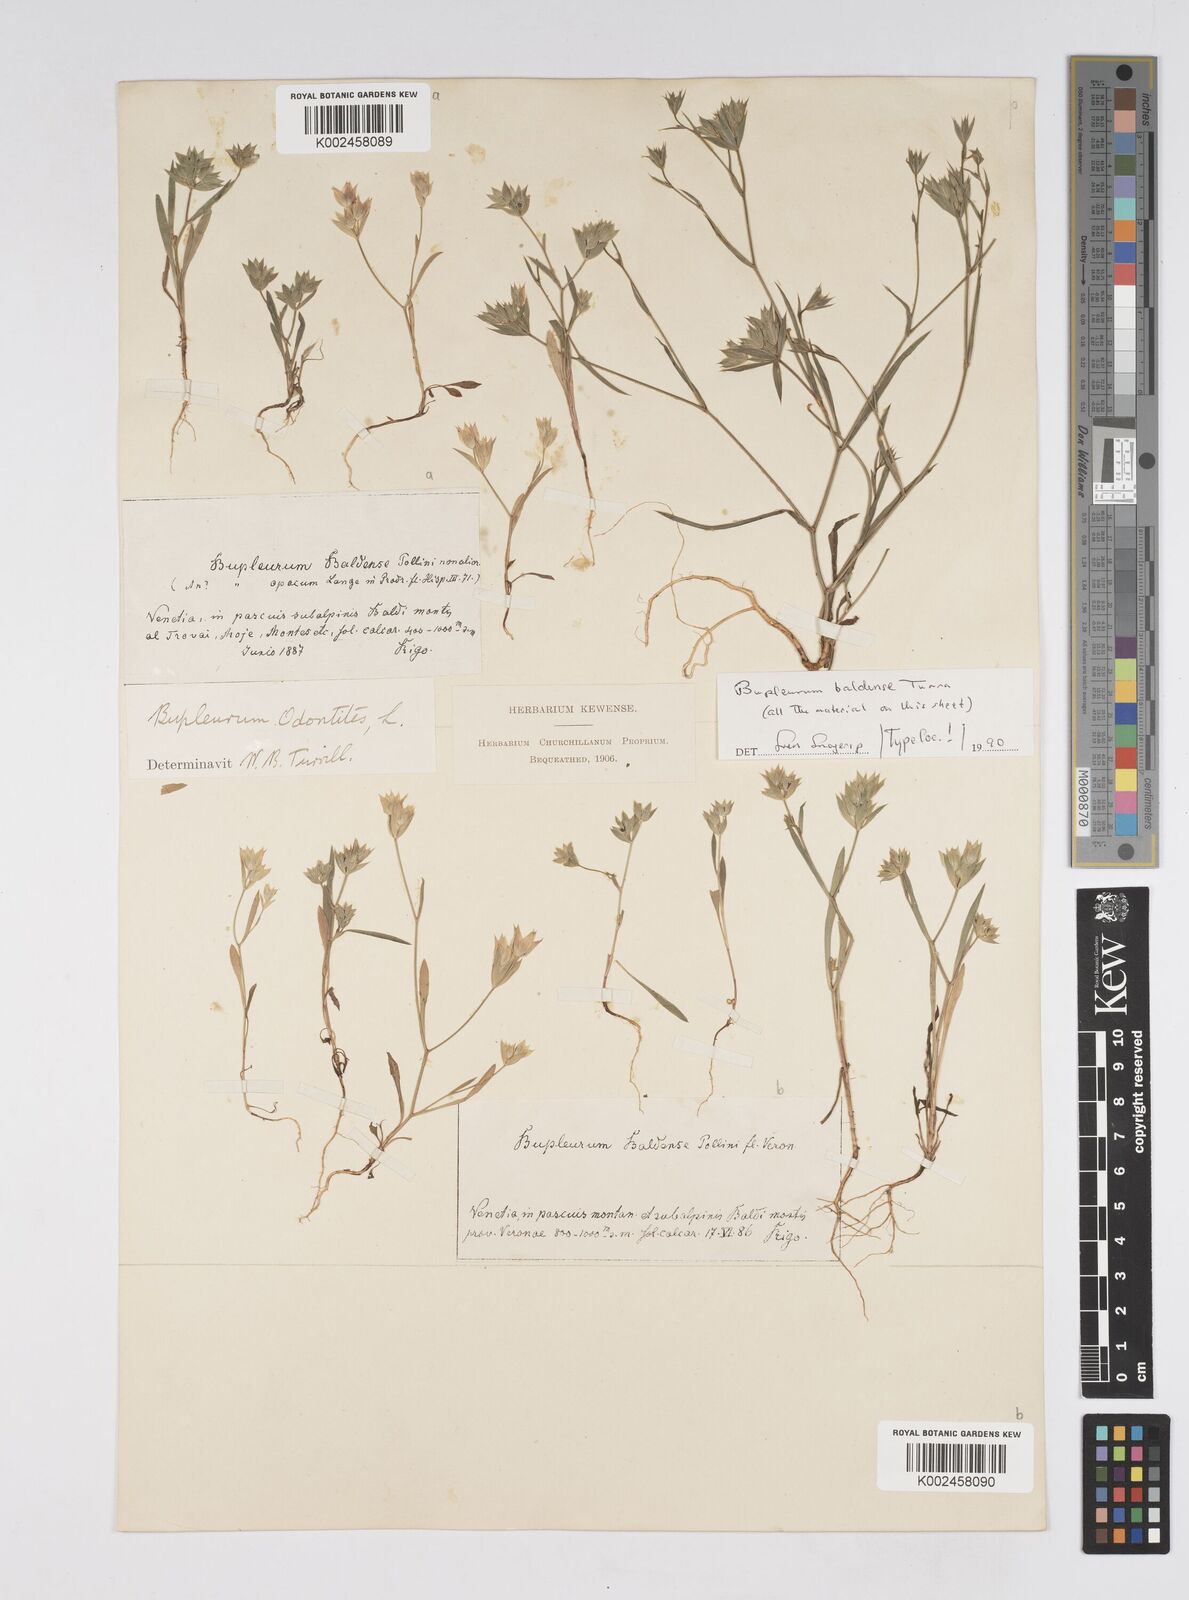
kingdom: Plantae
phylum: Tracheophyta
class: Magnoliopsida
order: Apiales
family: Apiaceae
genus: Bupleurum
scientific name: Bupleurum baldense
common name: Small hare's-ear
